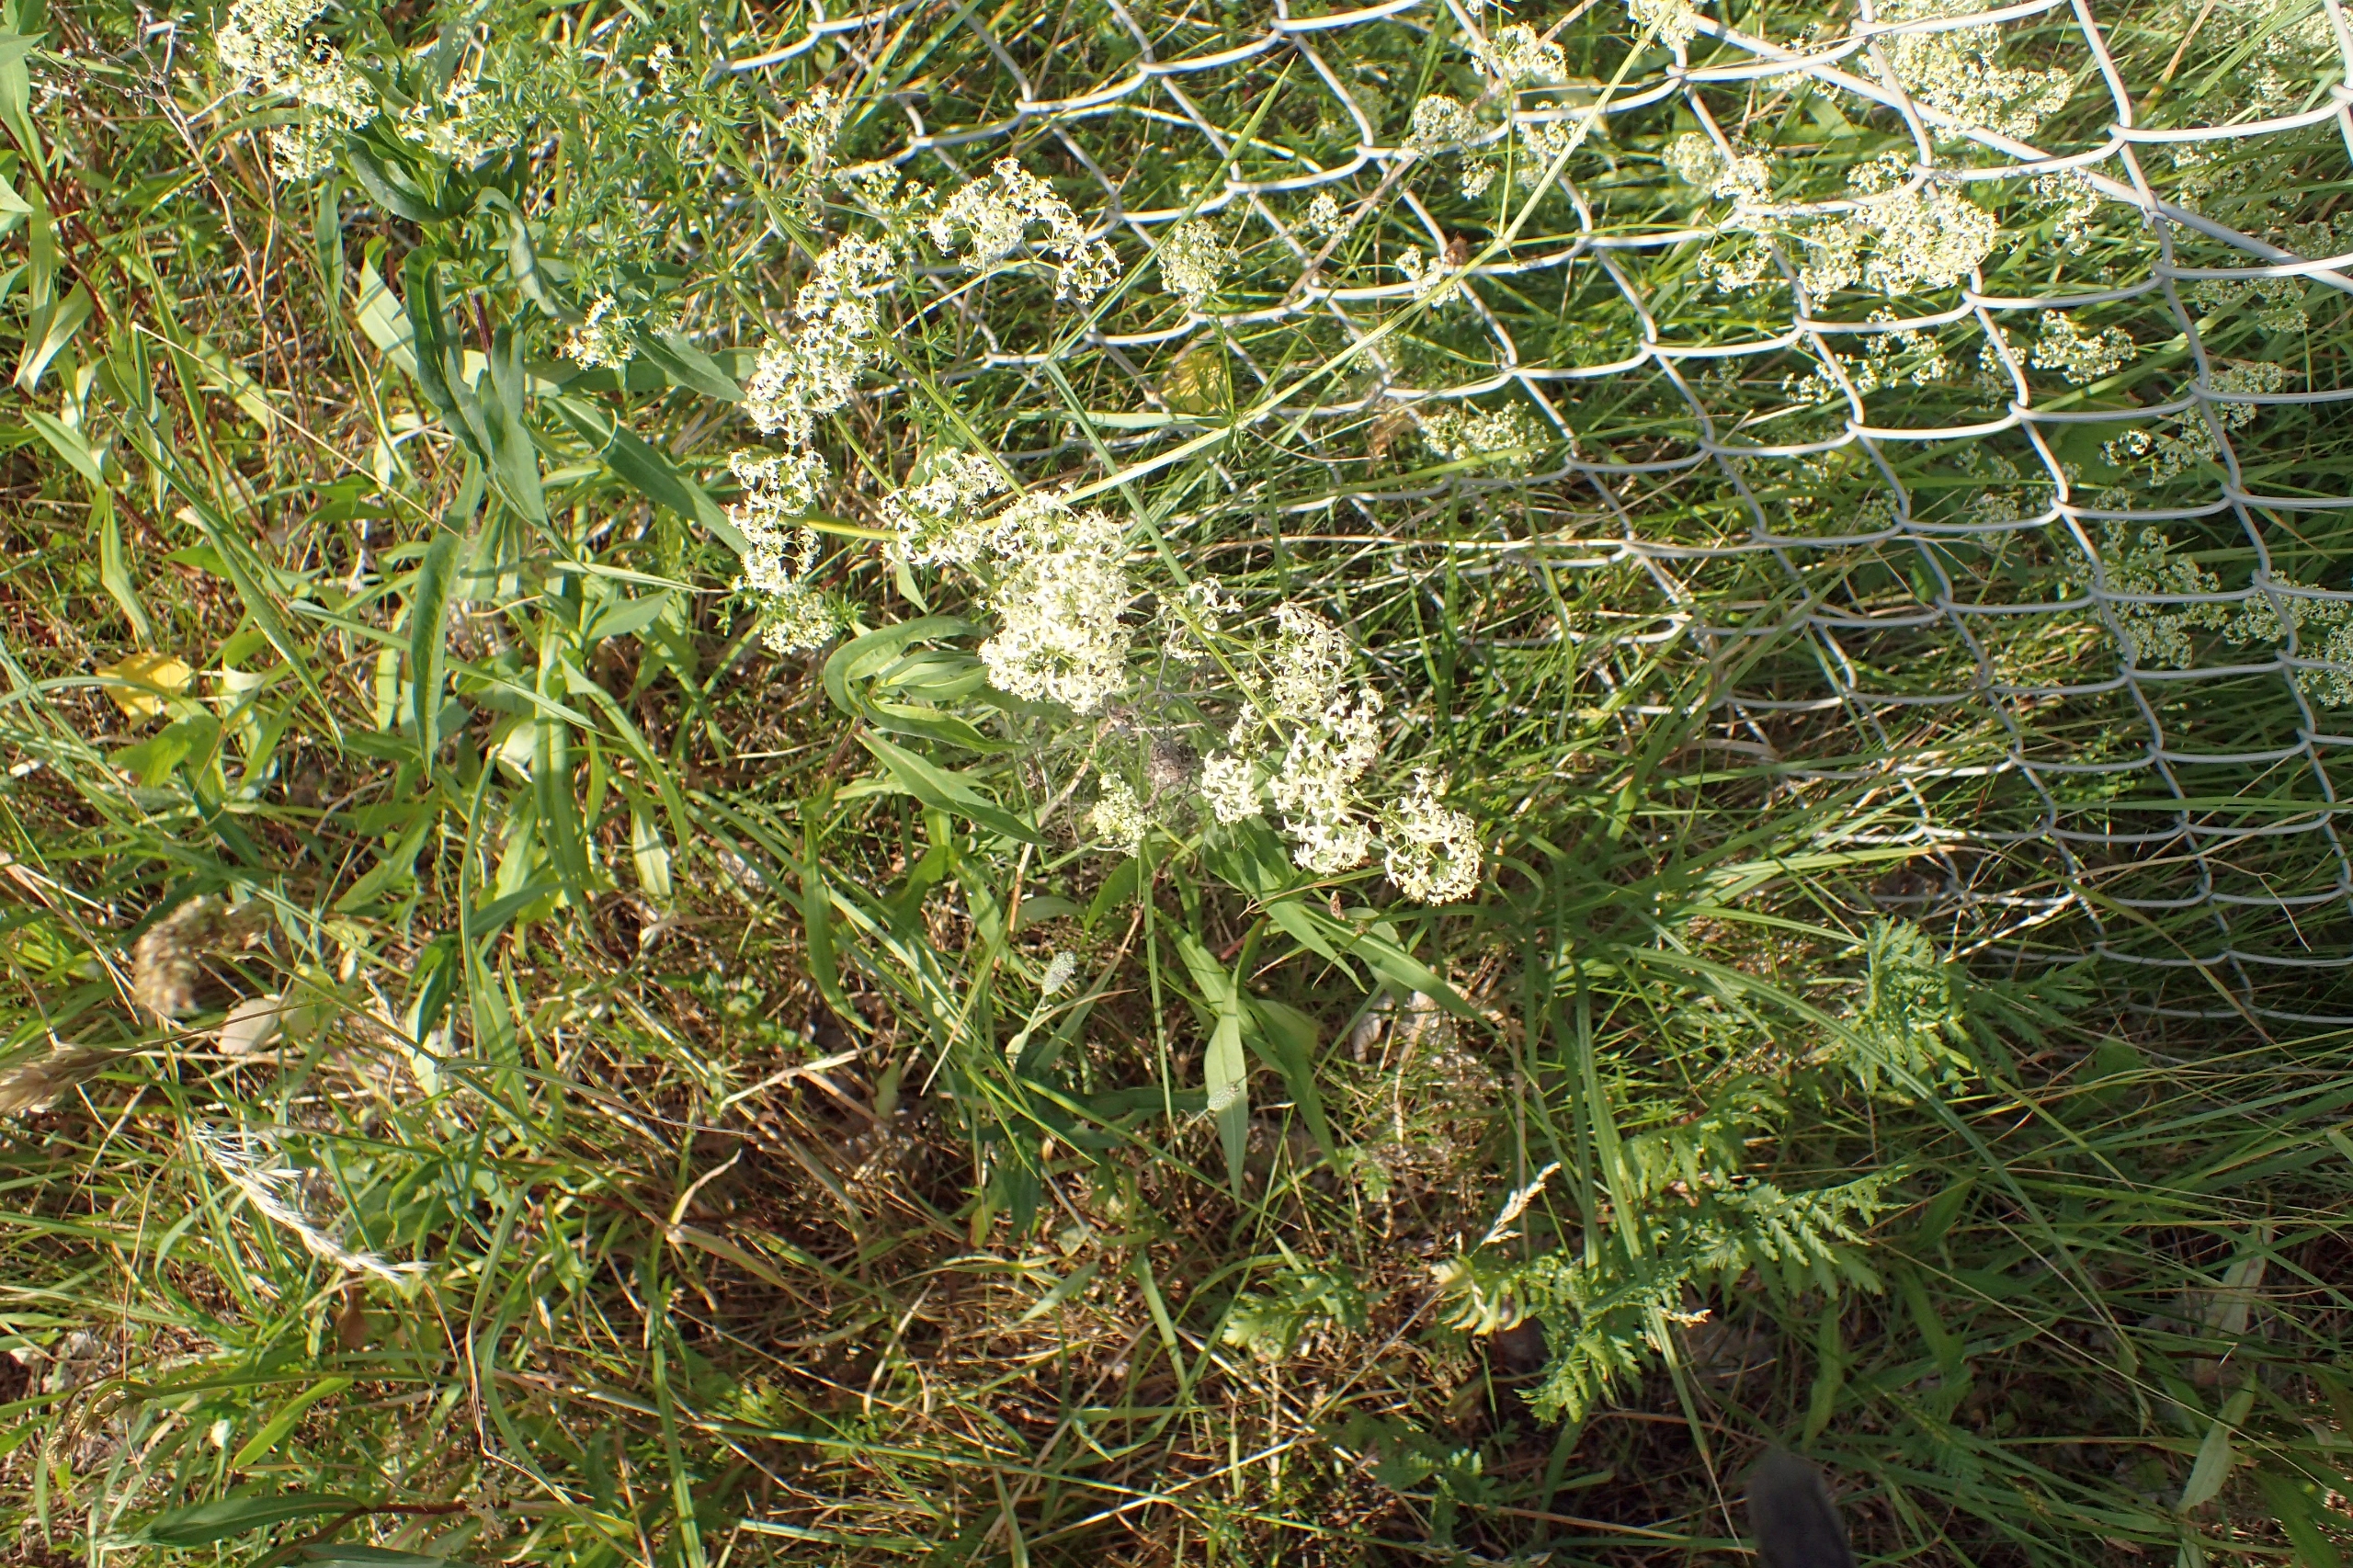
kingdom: Plantae
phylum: Tracheophyta
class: Magnoliopsida
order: Gentianales
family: Rubiaceae
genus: Galium
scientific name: Galium mollugo
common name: Hvid snerre
